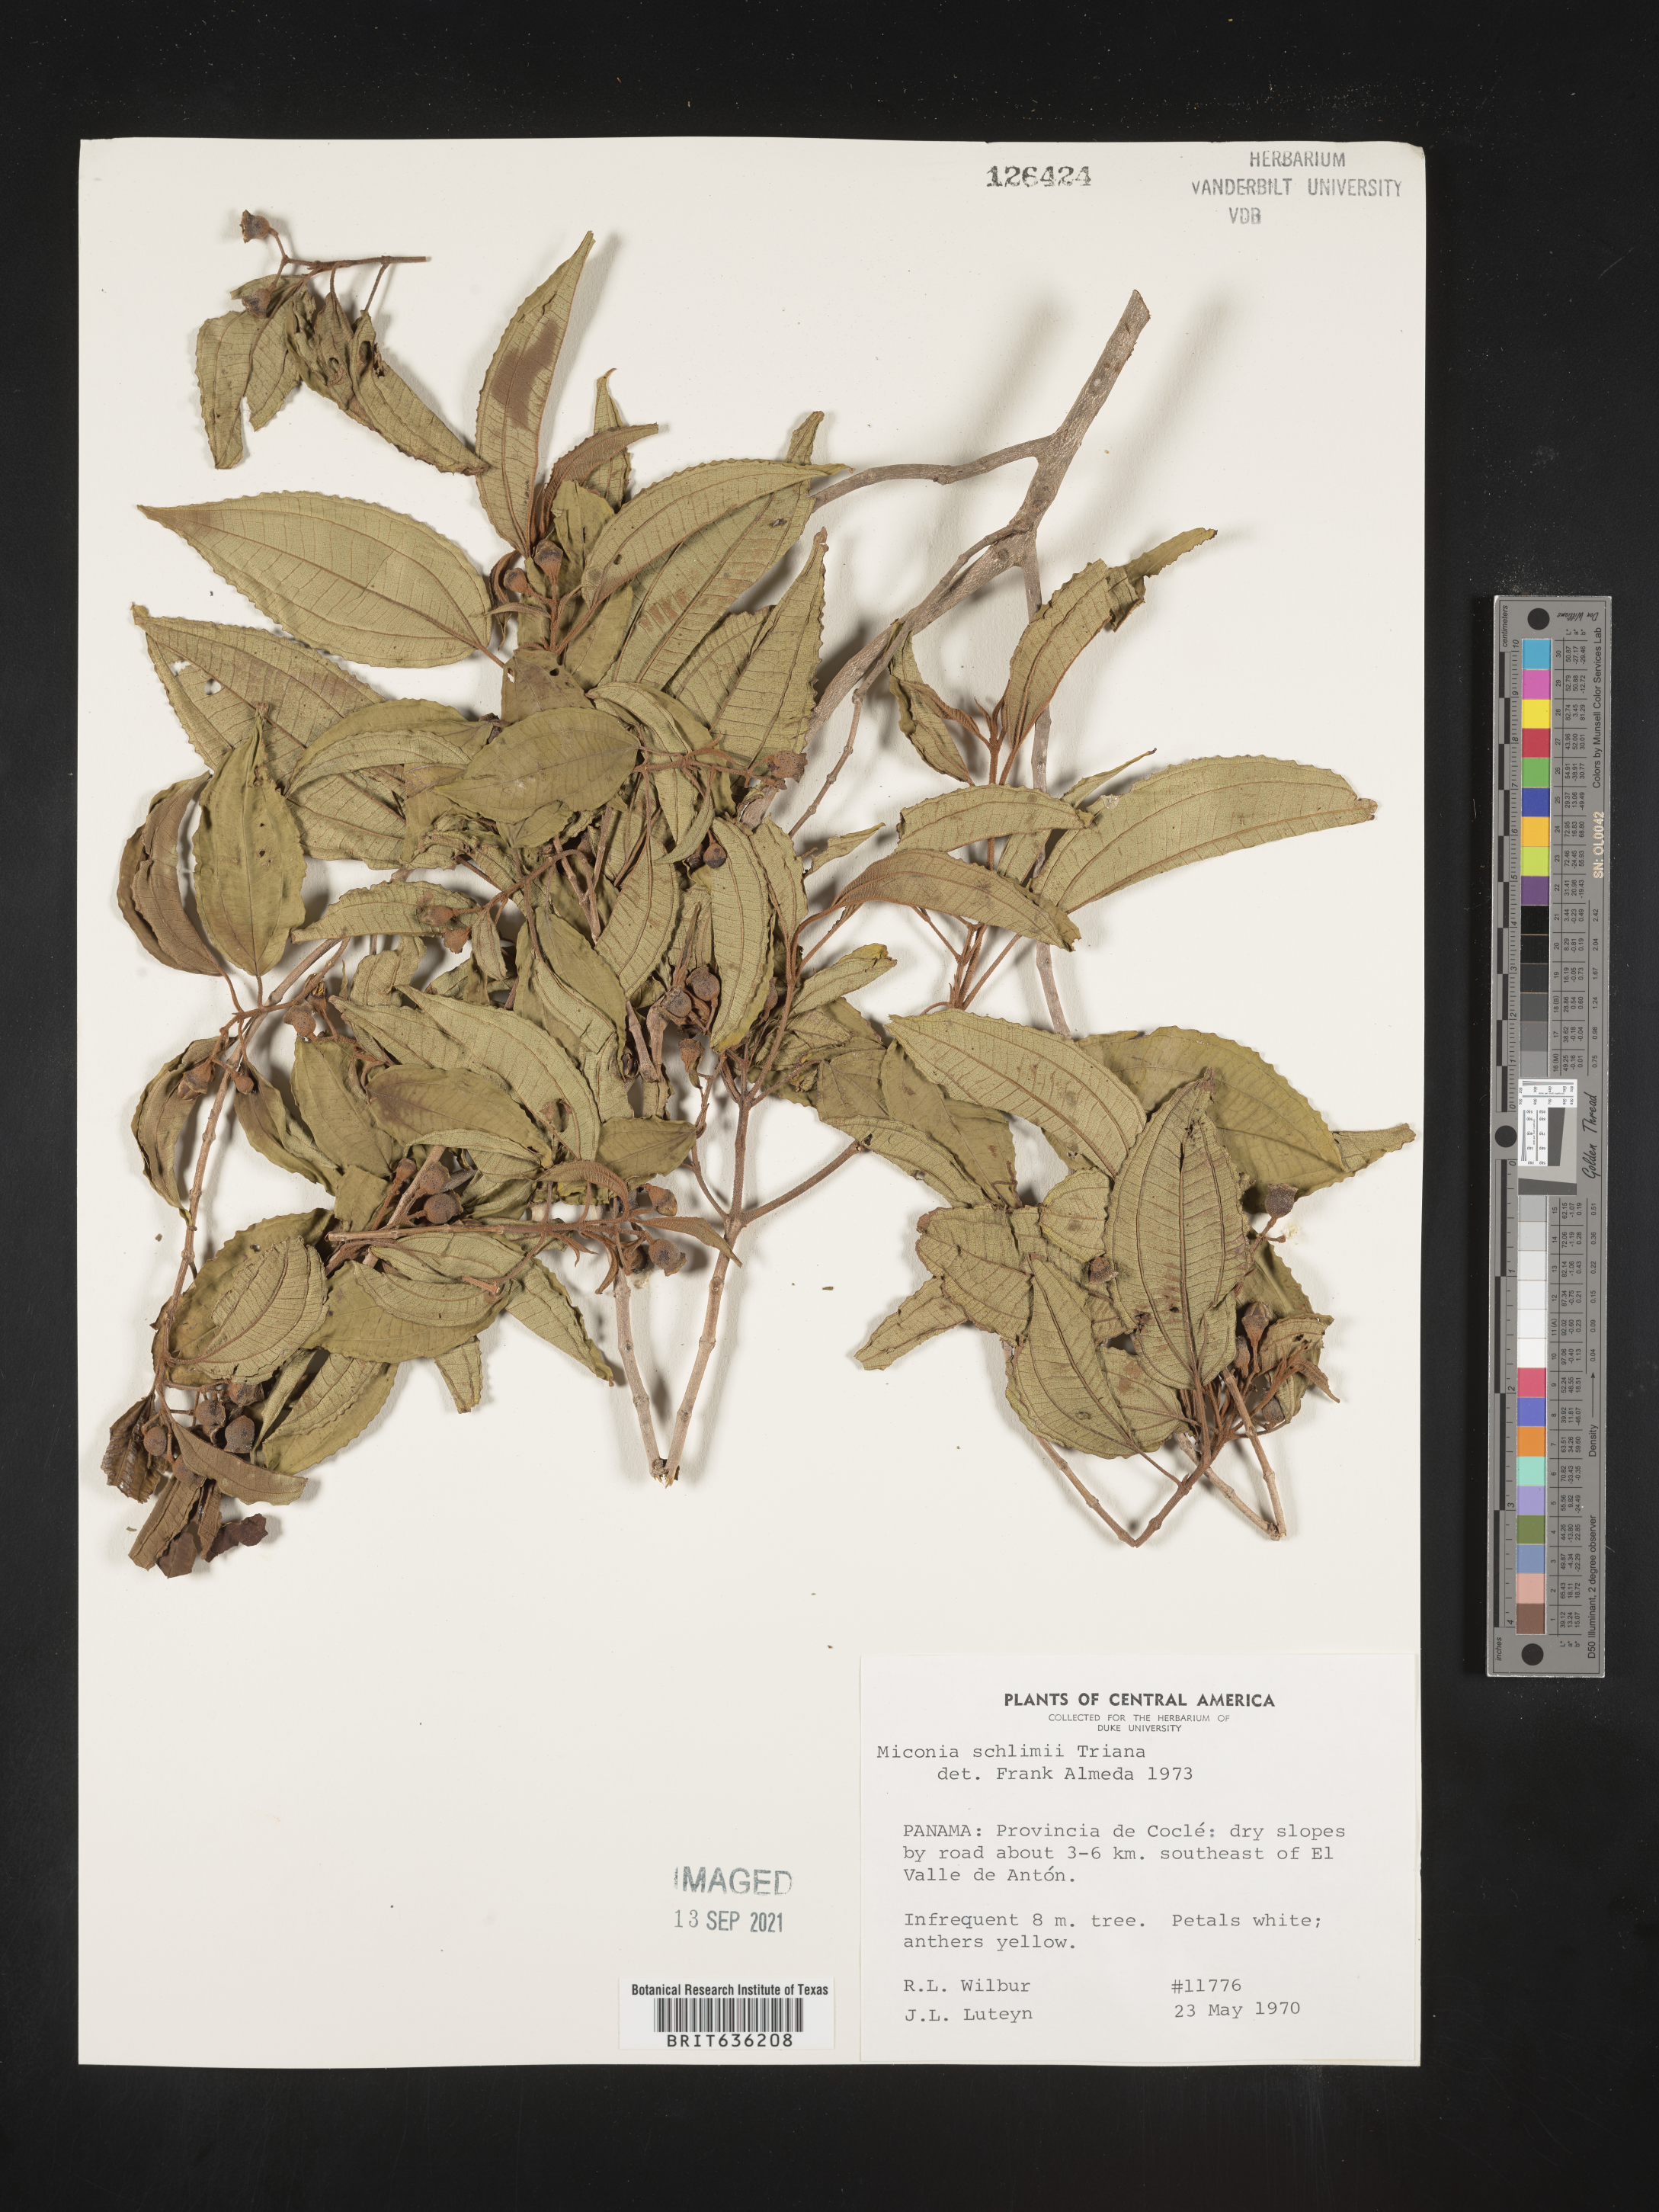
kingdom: Plantae
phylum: Tracheophyta
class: Magnoliopsida
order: Myrtales
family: Melastomataceae
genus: Miconia
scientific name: Miconia
